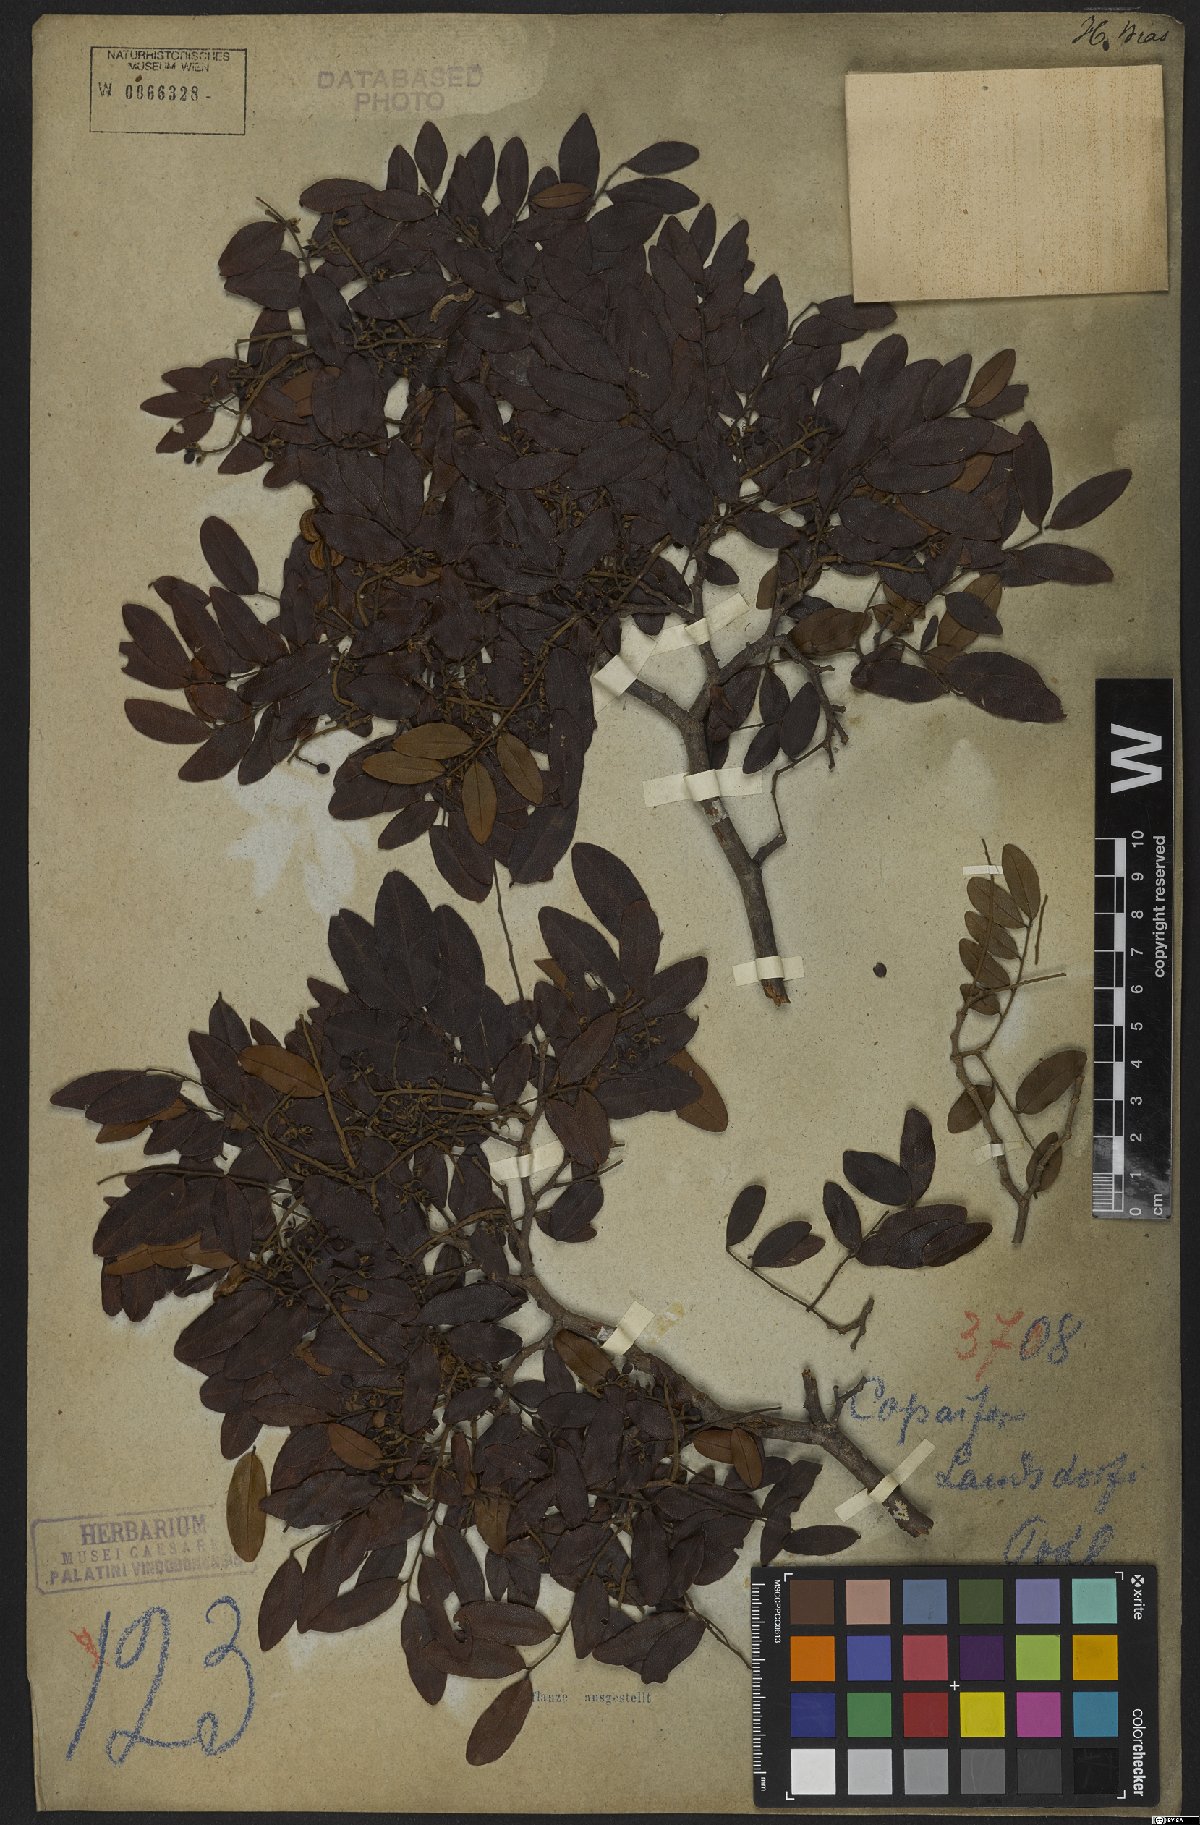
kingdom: Plantae
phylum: Tracheophyta
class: Magnoliopsida
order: Fabales
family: Fabaceae
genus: Copaifera
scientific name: Copaifera langsdorffii
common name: Brazilian diesel tree
